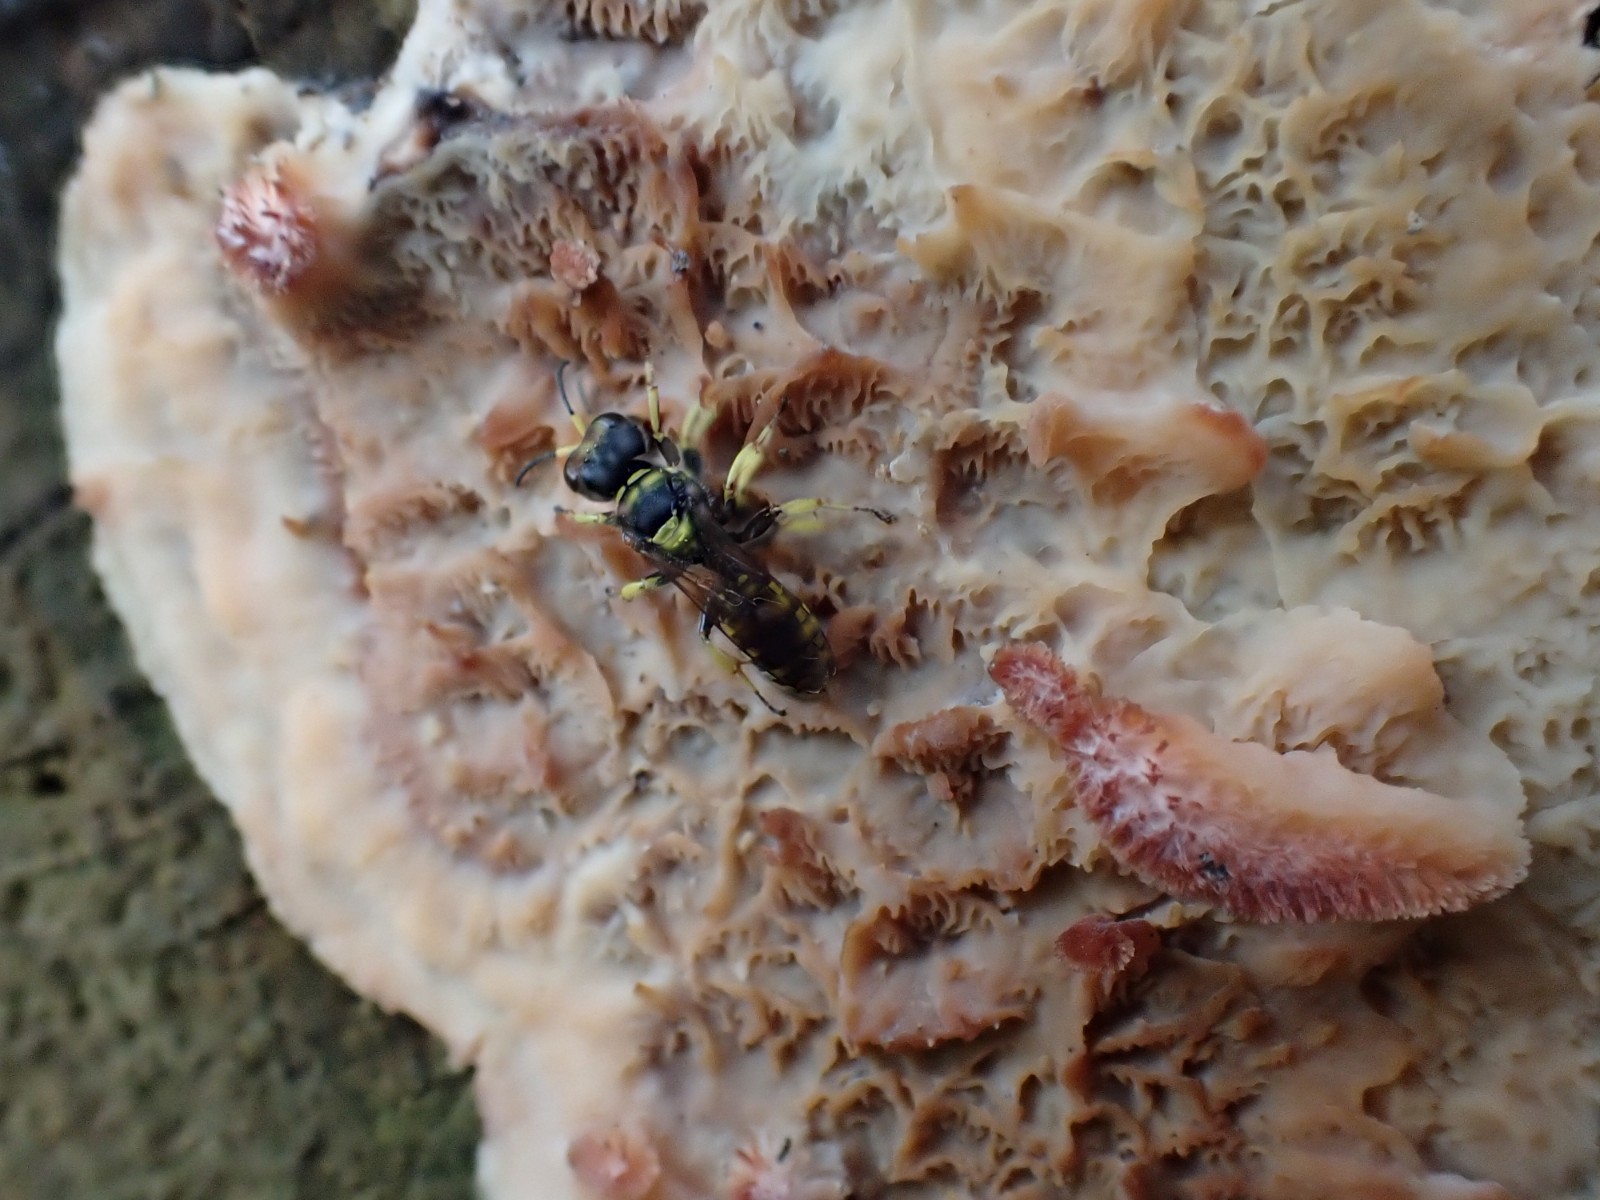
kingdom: Fungi
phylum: Basidiomycota
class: Agaricomycetes
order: Polyporales
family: Meruliaceae
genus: Phlebia
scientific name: Phlebia tremellosa
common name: bævrende åresvamp
